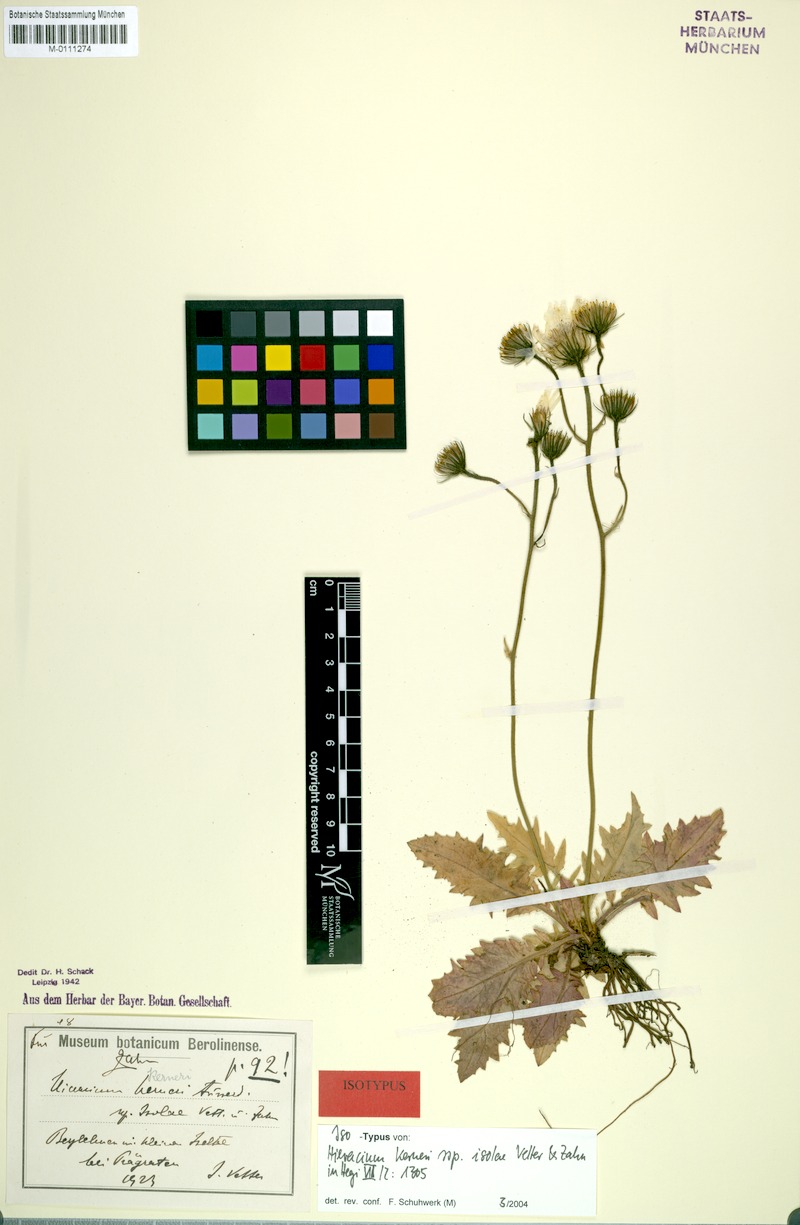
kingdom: Plantae
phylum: Tracheophyta
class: Magnoliopsida
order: Asterales
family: Asteraceae
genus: Hieracium
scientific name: Hieracium balbisianum
